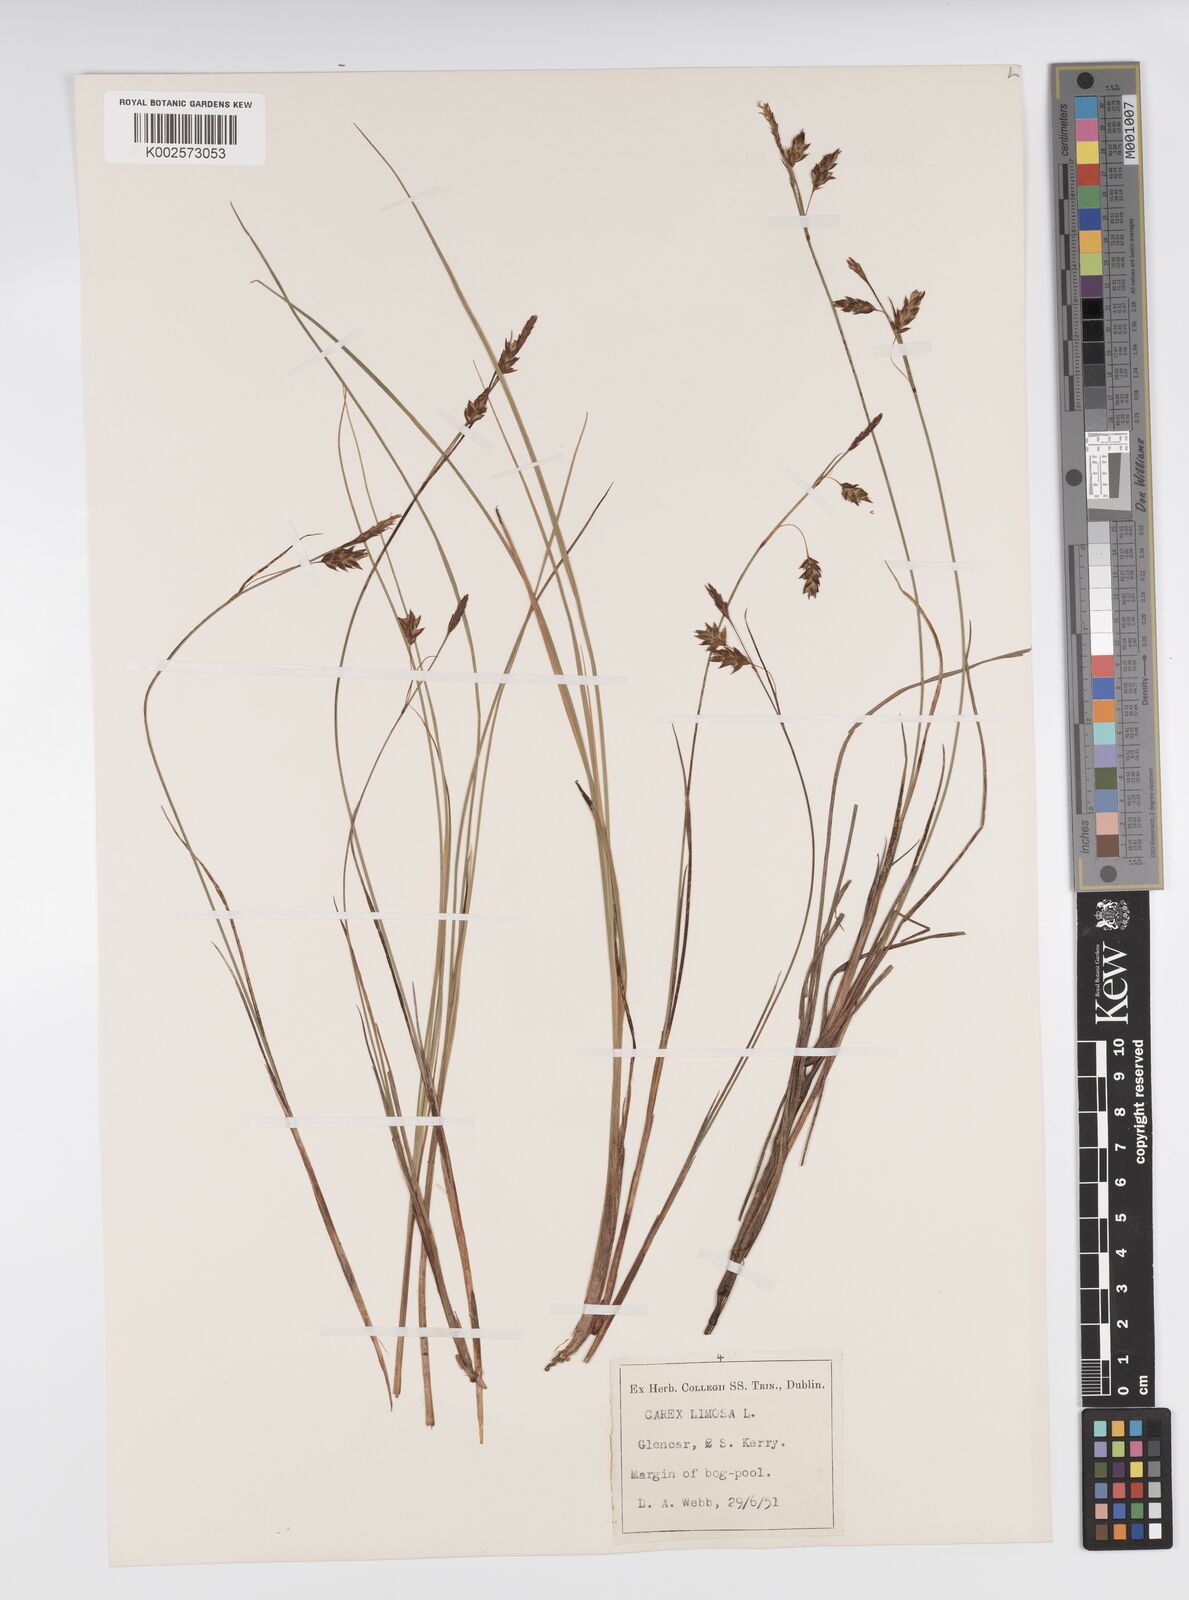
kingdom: Plantae
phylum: Tracheophyta
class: Liliopsida
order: Poales
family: Cyperaceae
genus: Carex
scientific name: Carex limosa
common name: Bog sedge
